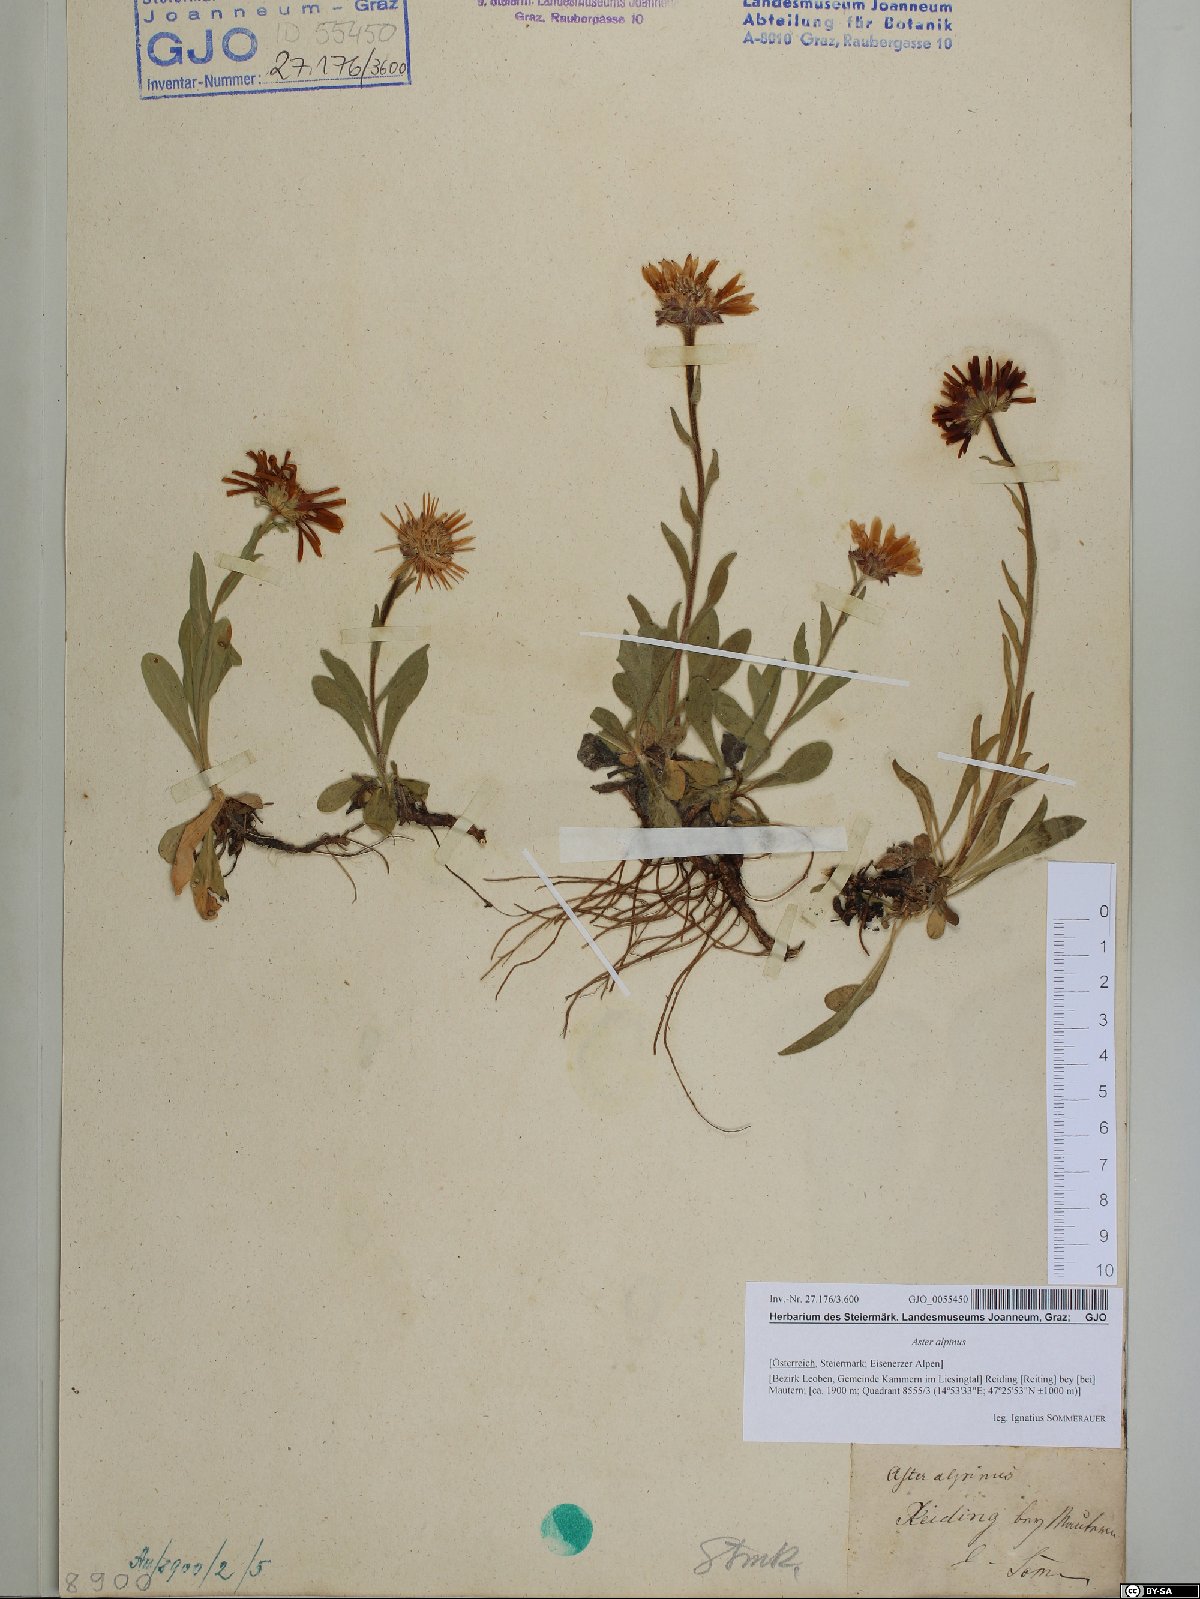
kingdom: Plantae
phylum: Tracheophyta
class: Magnoliopsida
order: Asterales
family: Asteraceae
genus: Aster
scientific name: Aster alpinus
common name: Alpine aster
